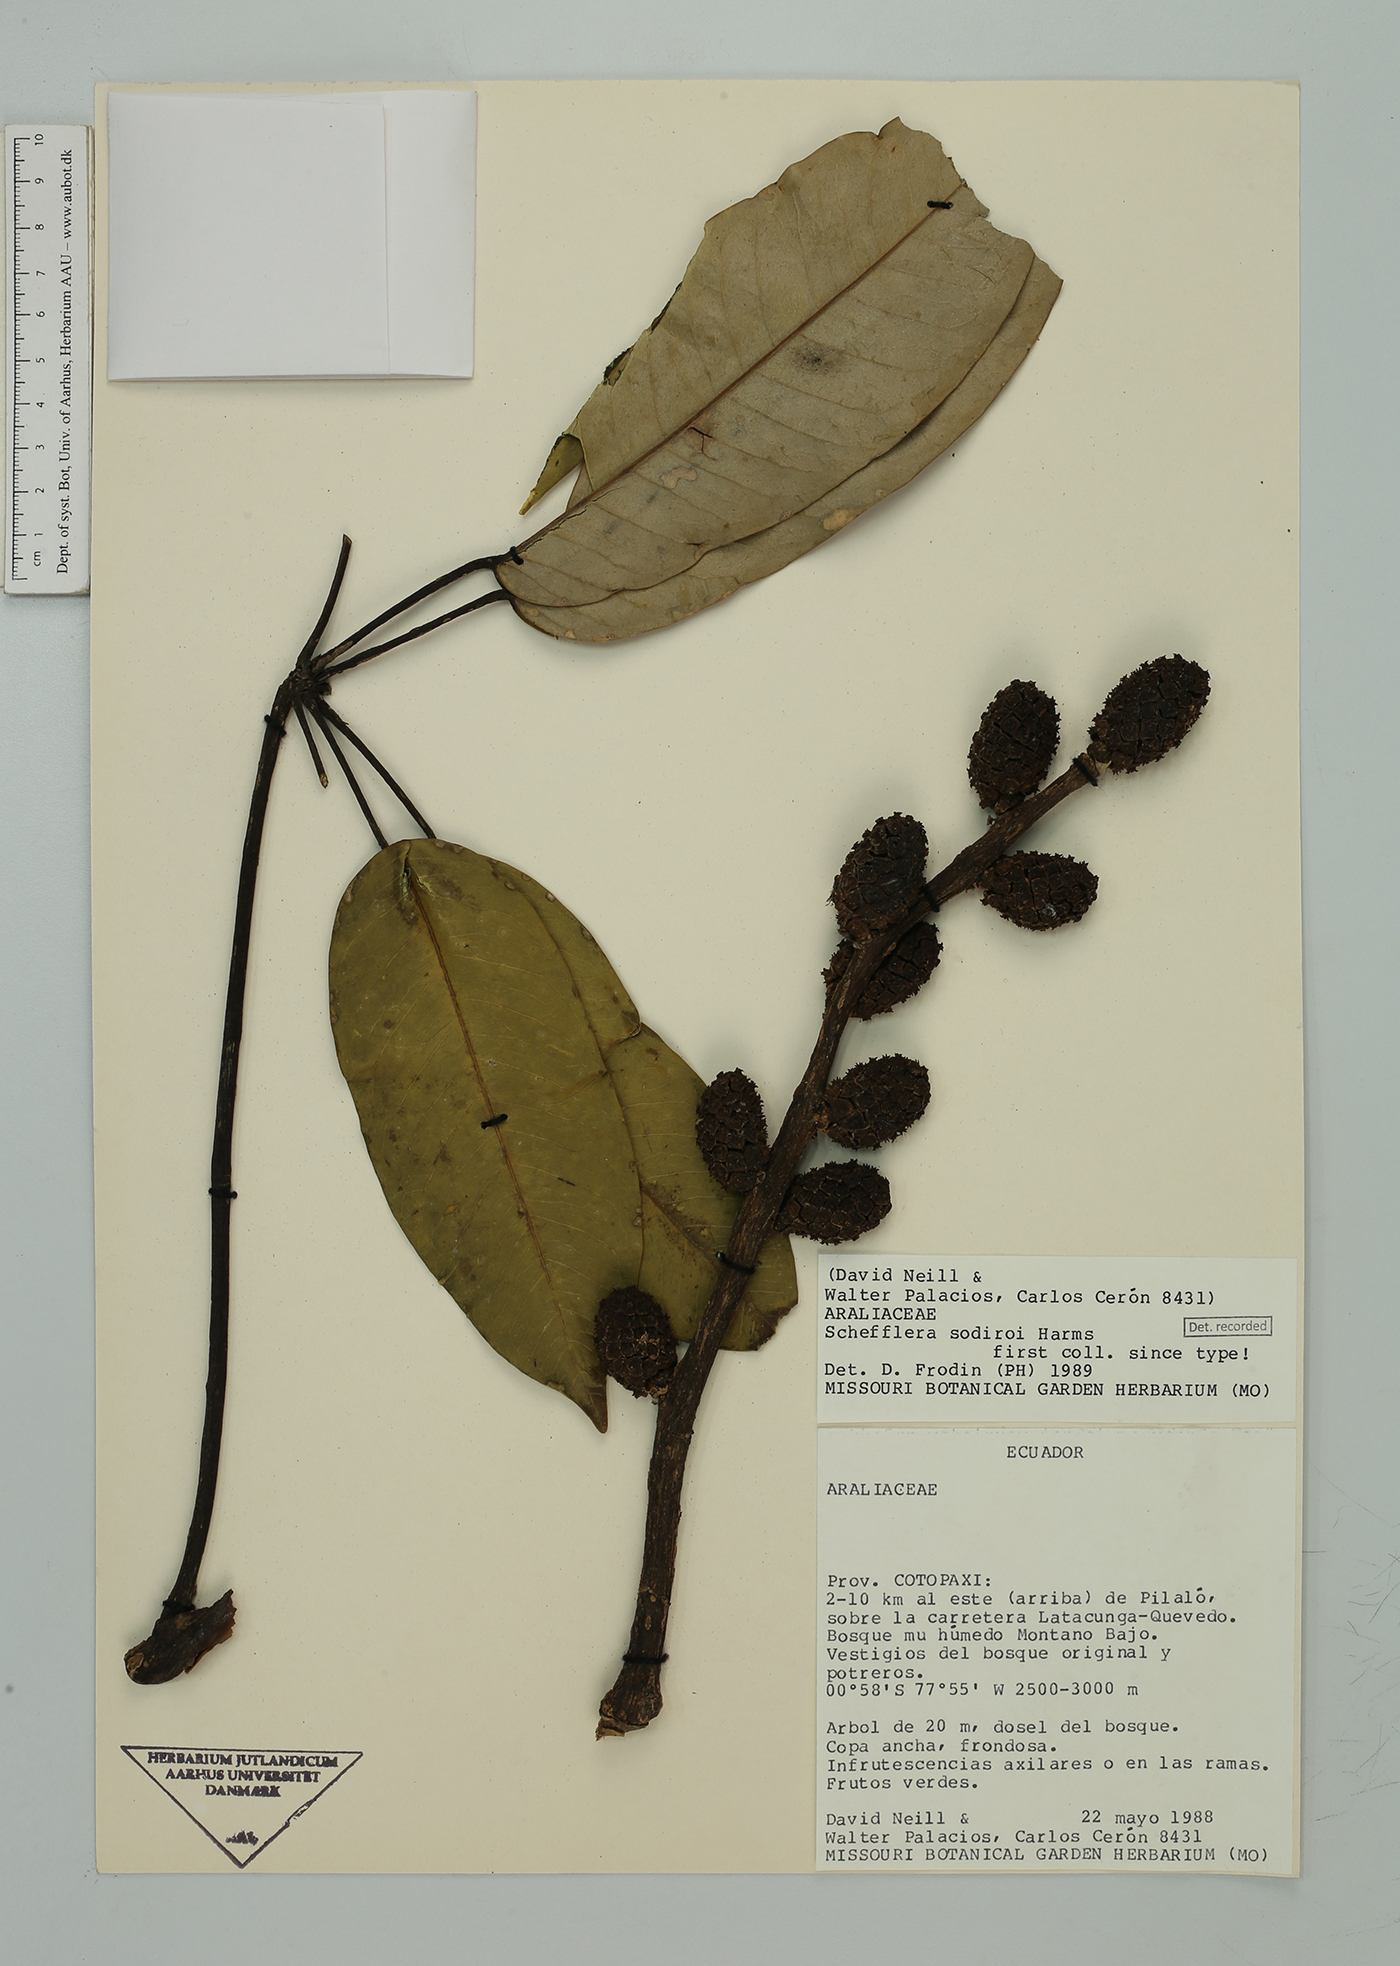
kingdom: Plantae
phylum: Tracheophyta
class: Magnoliopsida
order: Apiales
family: Araliaceae
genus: Sciodaphyllum
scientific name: Sciodaphyllum sodiroi
